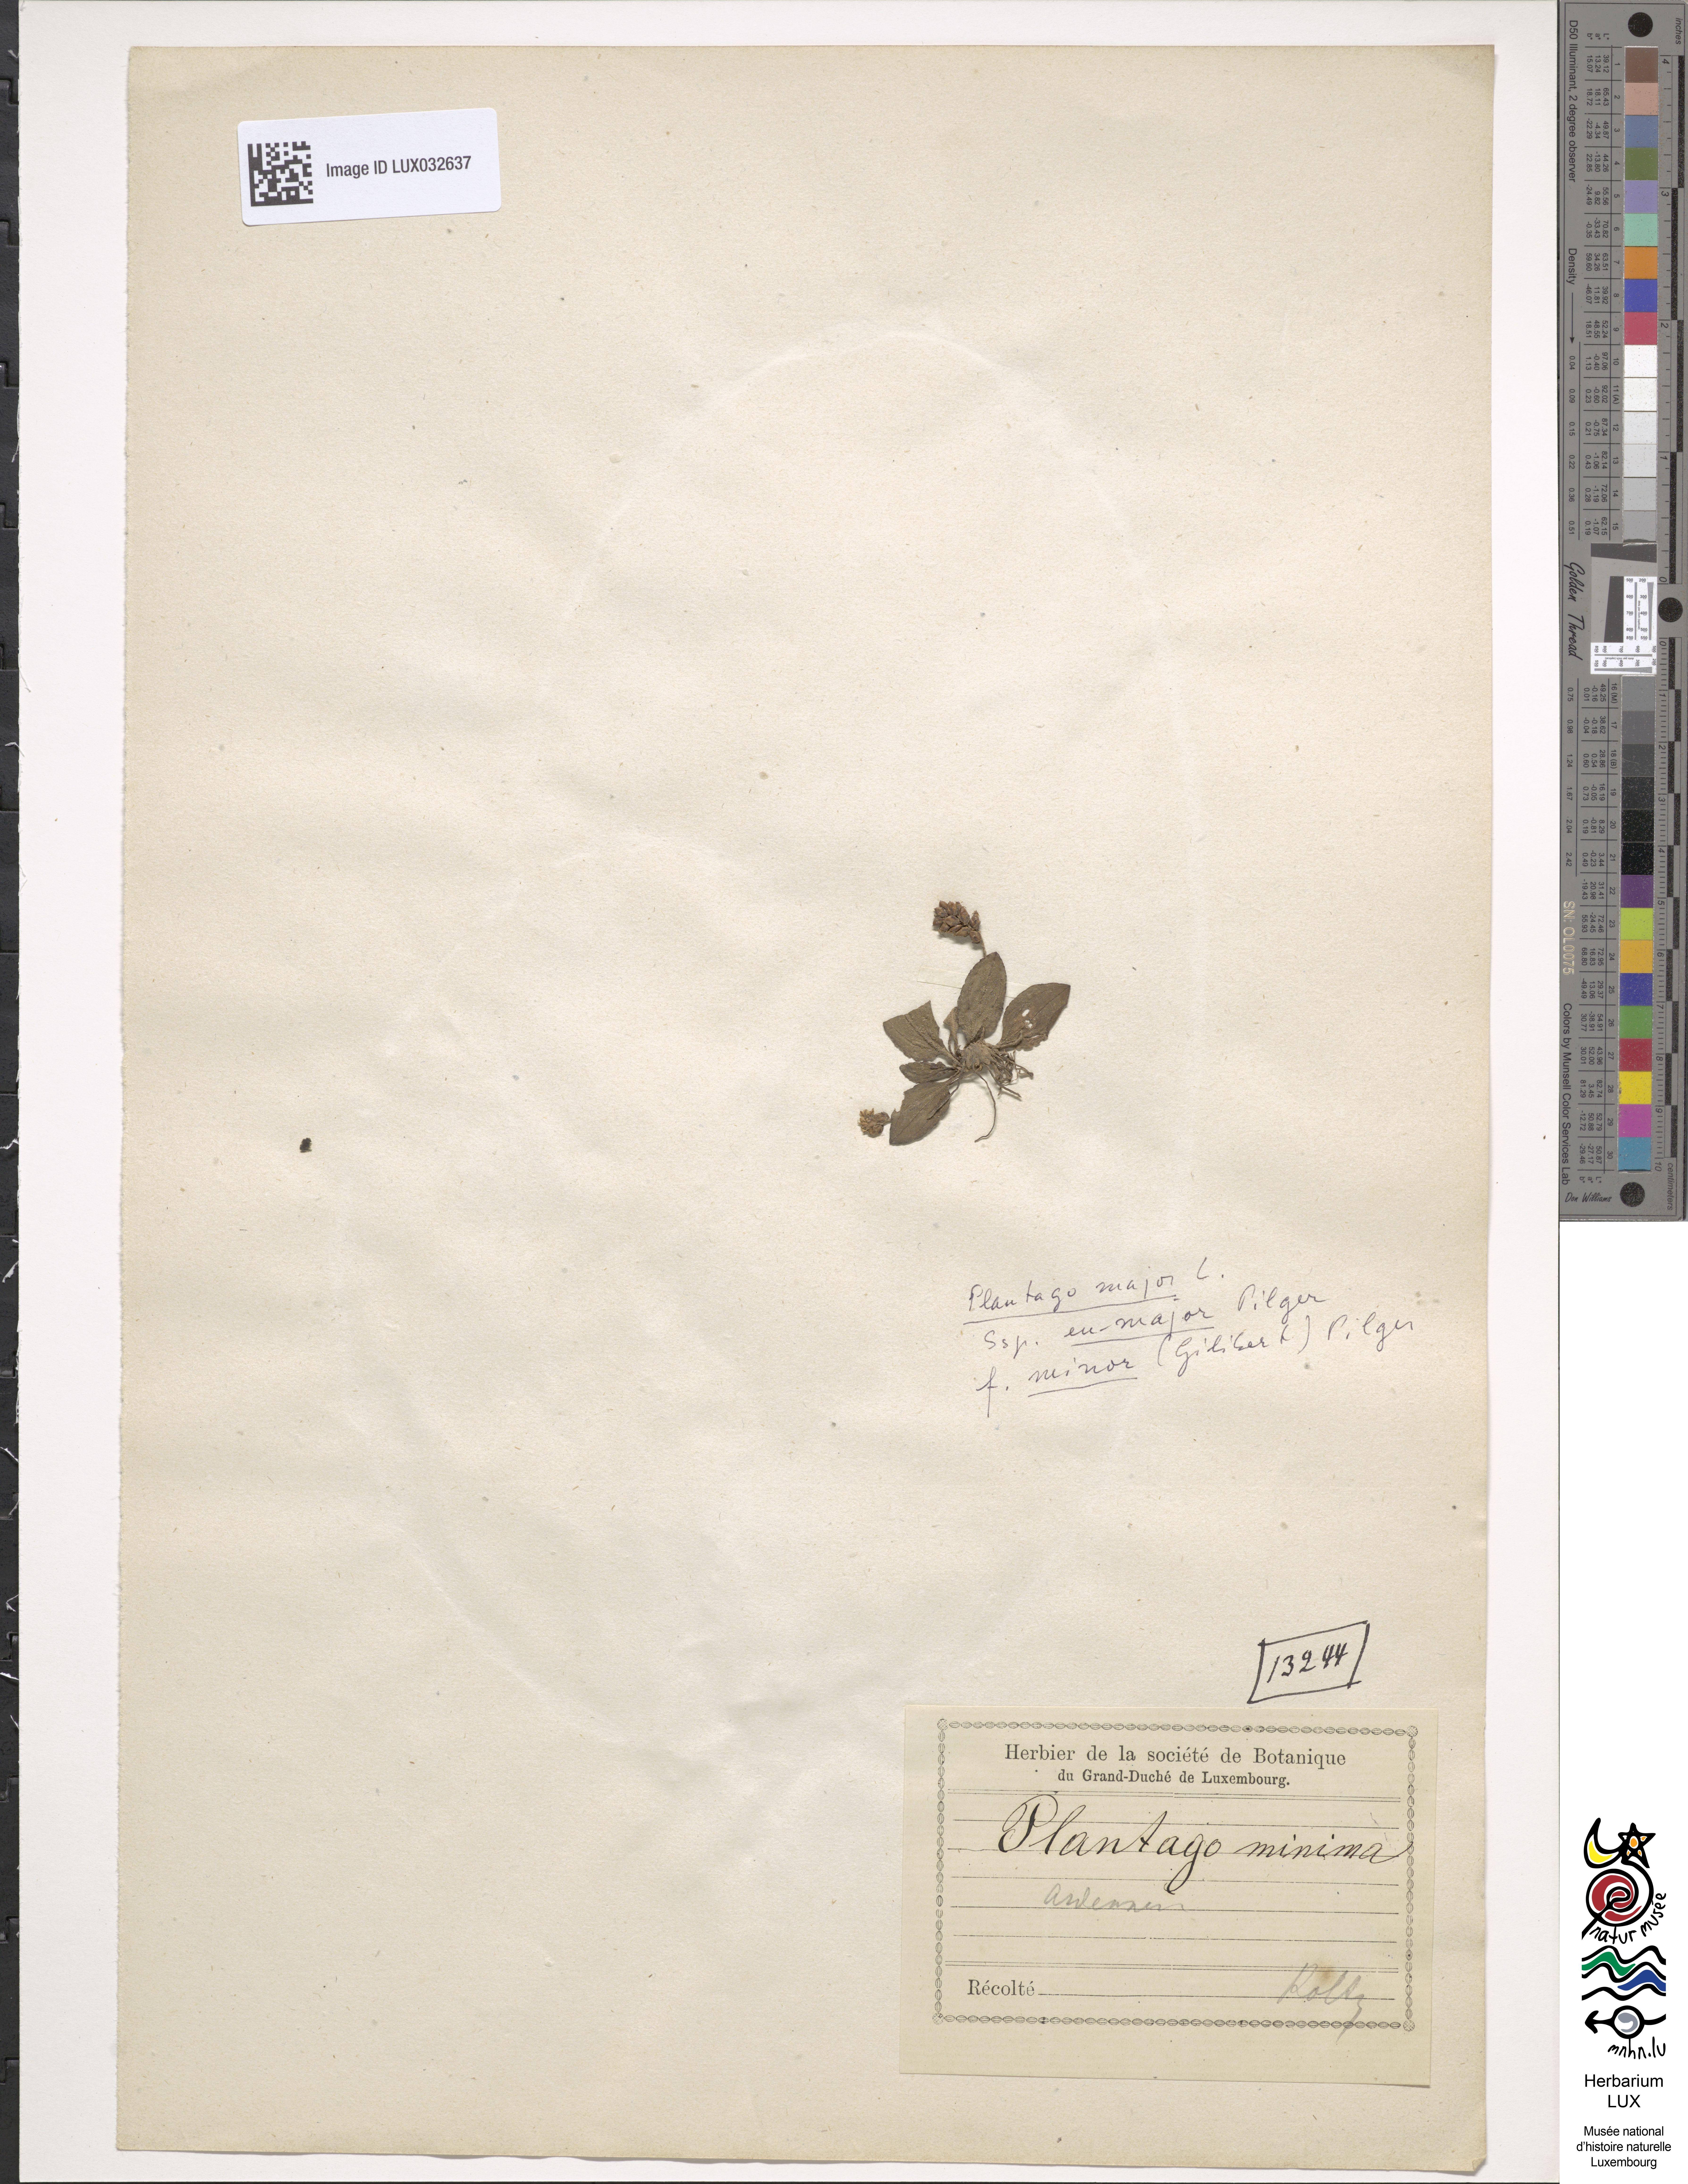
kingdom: Plantae
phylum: Tracheophyta
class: Magnoliopsida
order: Lamiales
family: Plantaginaceae
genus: Plantago
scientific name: Plantago
